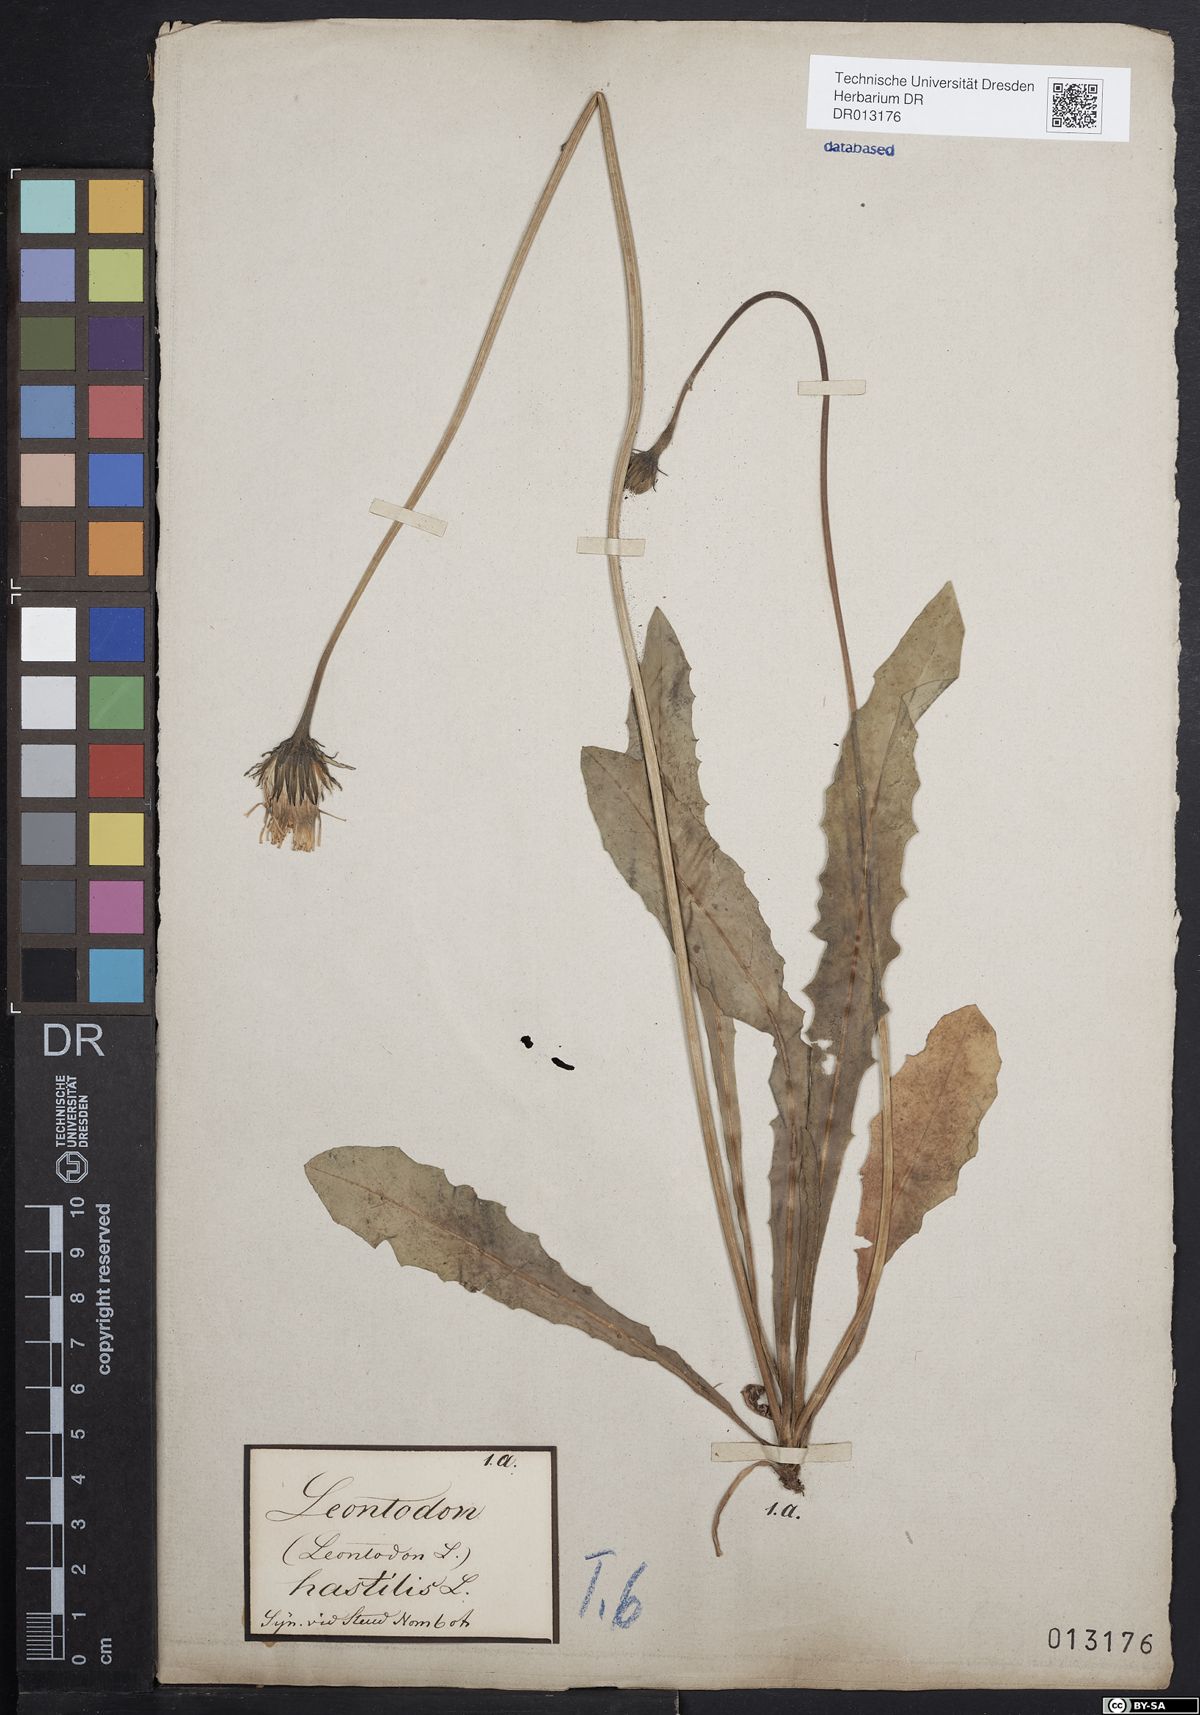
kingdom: Plantae
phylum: Tracheophyta
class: Magnoliopsida
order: Asterales
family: Asteraceae
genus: Leontodon
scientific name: Leontodon hispidus
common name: Rough hawkbit
